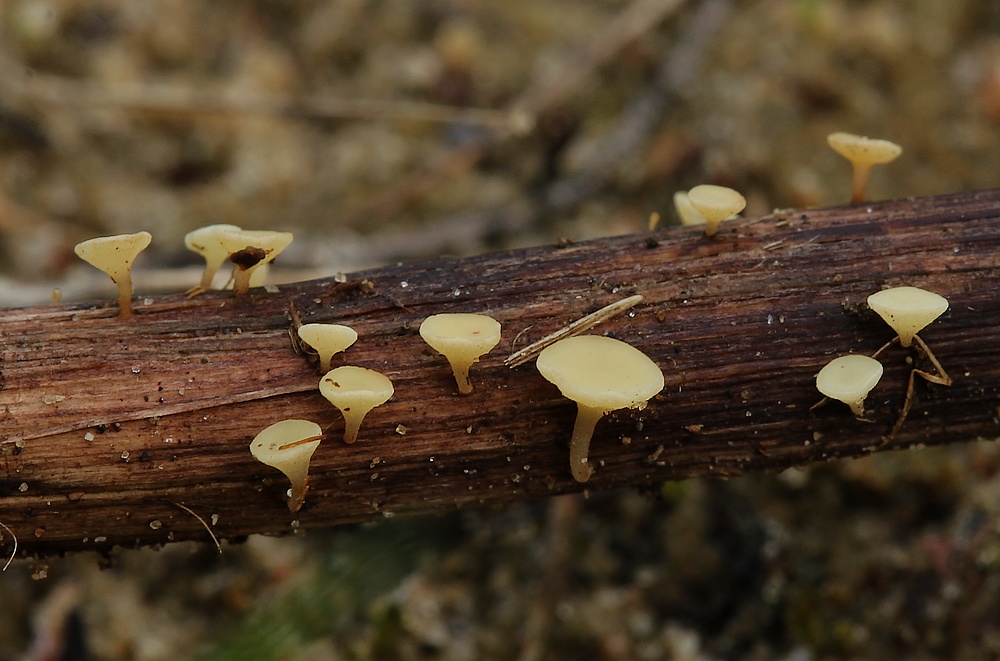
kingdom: Fungi
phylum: Ascomycota
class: Leotiomycetes
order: Helotiales
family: Helotiaceae
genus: Hymenoscyphus
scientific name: Hymenoscyphus scutula
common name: almindelig stilkskive
